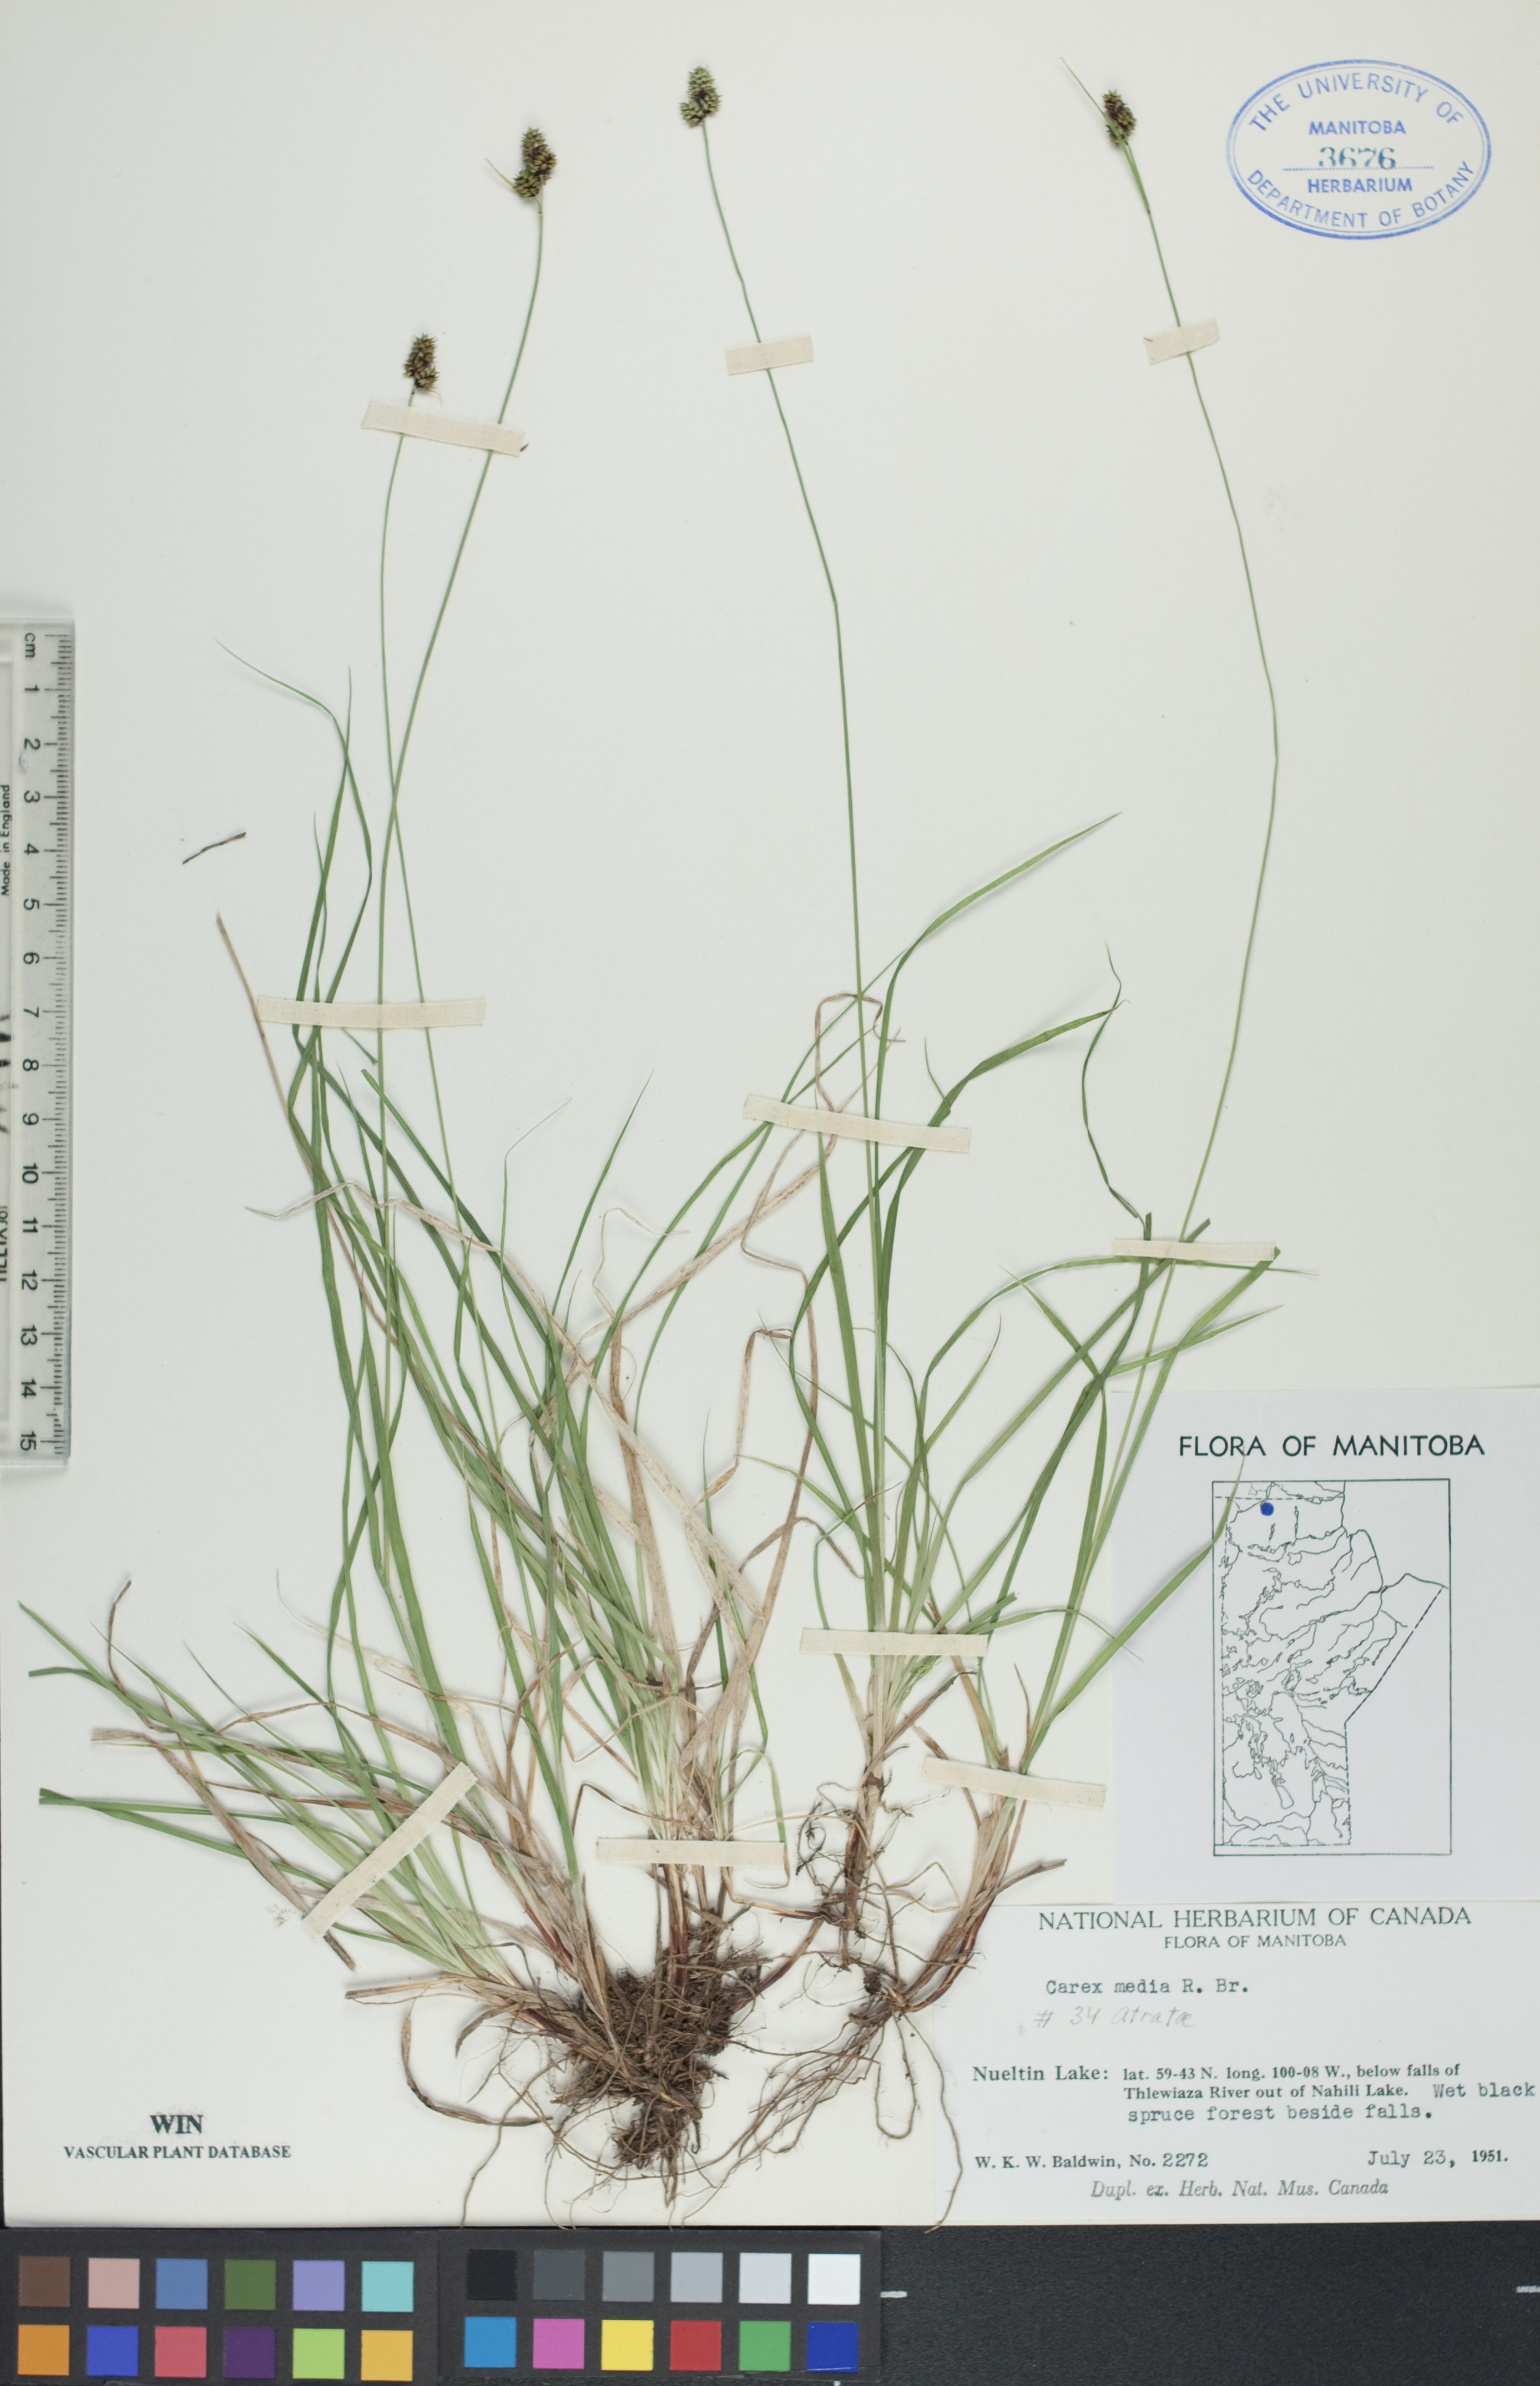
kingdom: Plantae
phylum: Tracheophyta
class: Liliopsida
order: Poales
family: Cyperaceae
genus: Carex
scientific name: Carex media
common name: Alpine sedge
